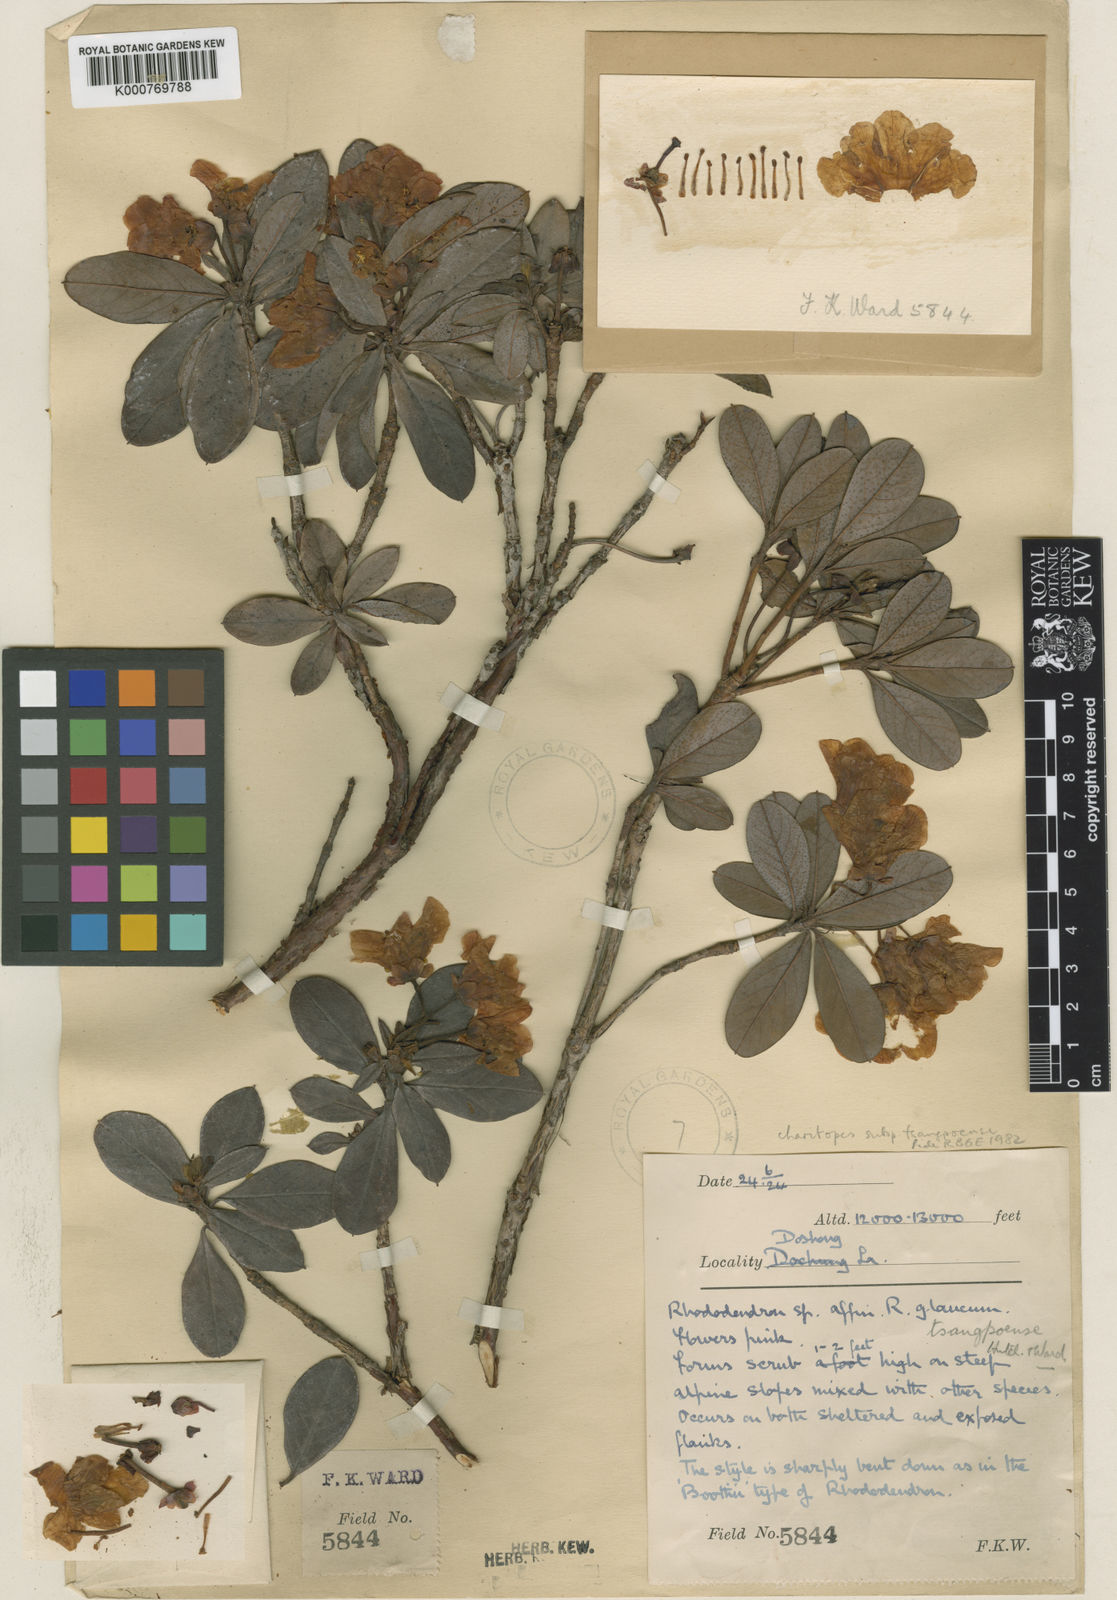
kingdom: Plantae
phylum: Tracheophyta
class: Magnoliopsida
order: Ericales
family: Ericaceae
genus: Rhododendron
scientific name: Rhododendron charitopes
